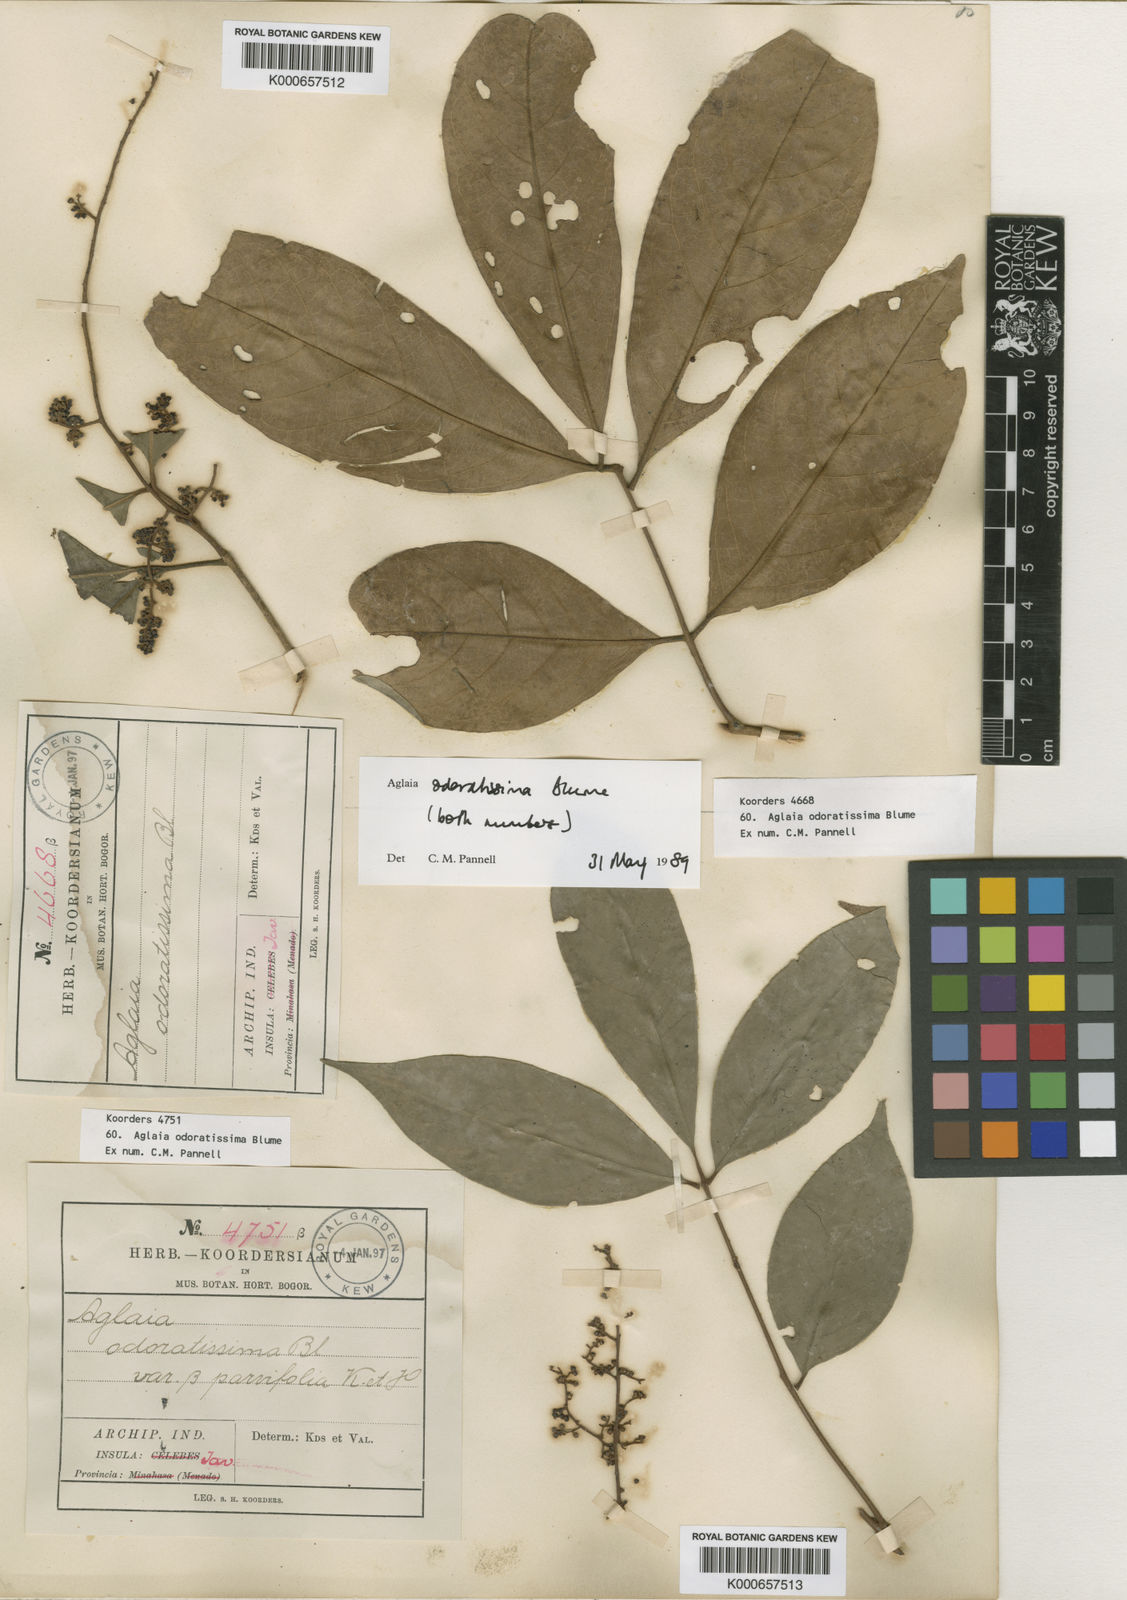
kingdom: Plantae
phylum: Tracheophyta
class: Magnoliopsida
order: Sapindales
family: Meliaceae
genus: Aglaia
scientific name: Aglaia odoratissima
